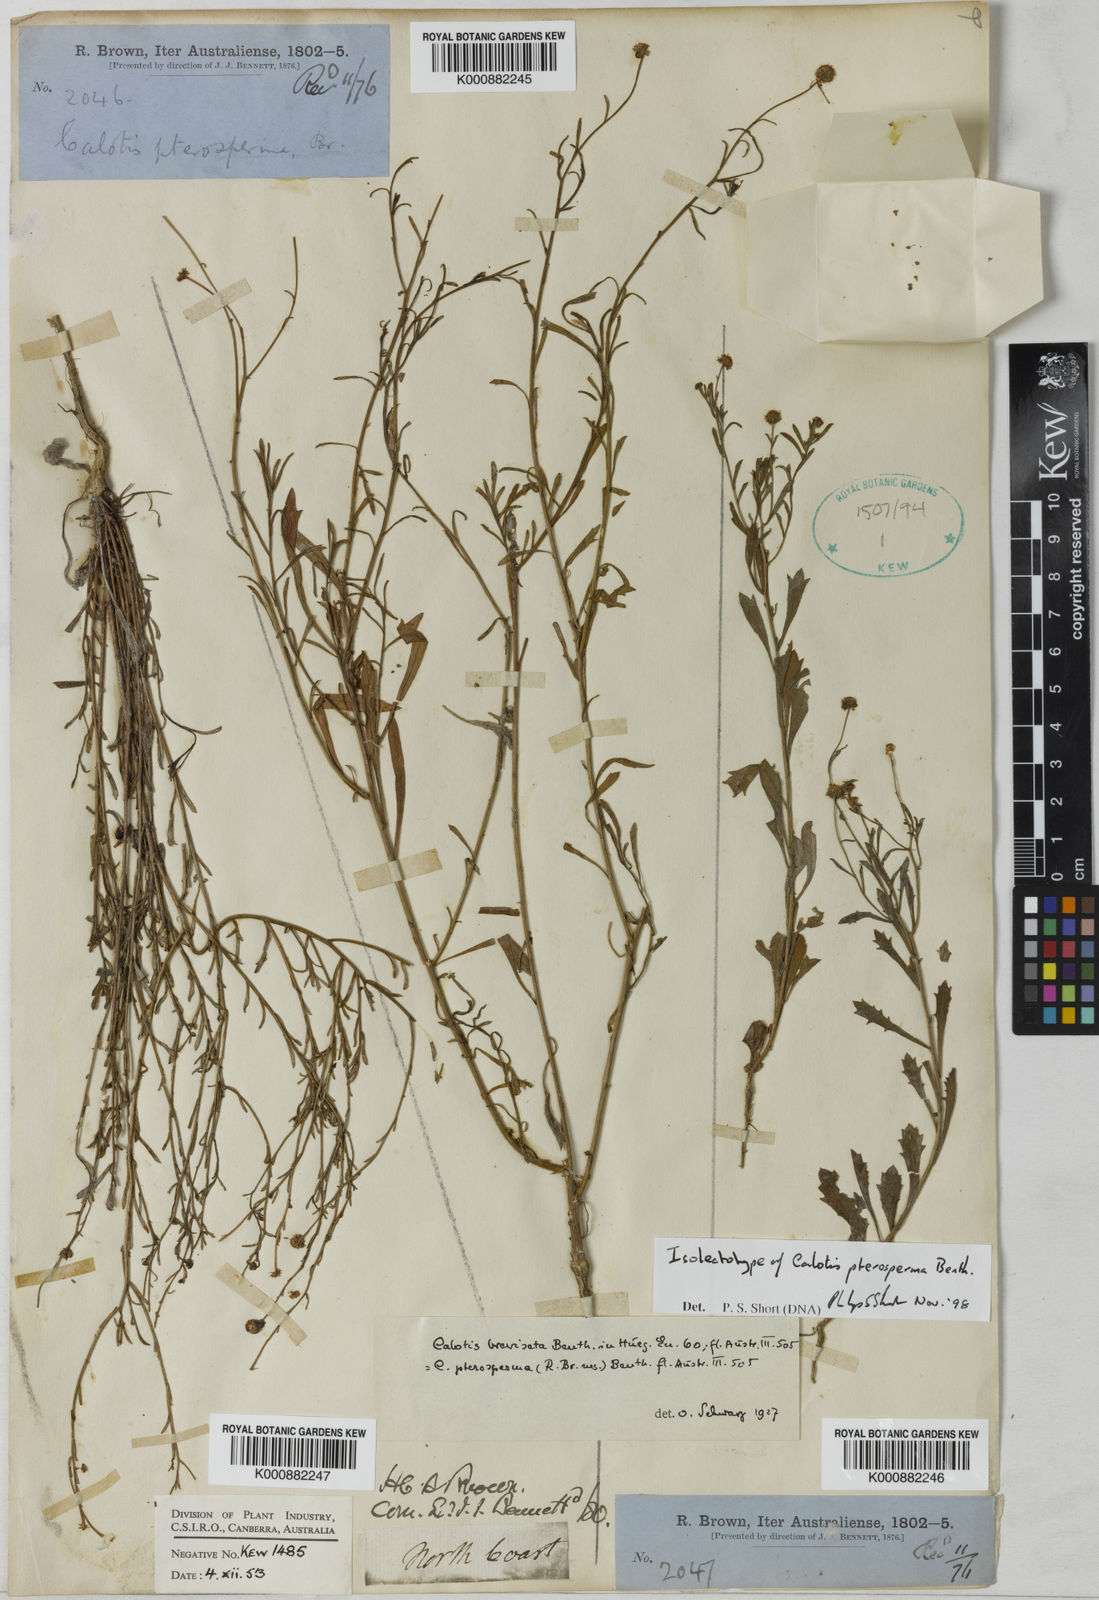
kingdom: Plantae
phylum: Tracheophyta
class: Magnoliopsida
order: Asterales
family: Asteraceae
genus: Calotis
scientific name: Calotis breviseta
